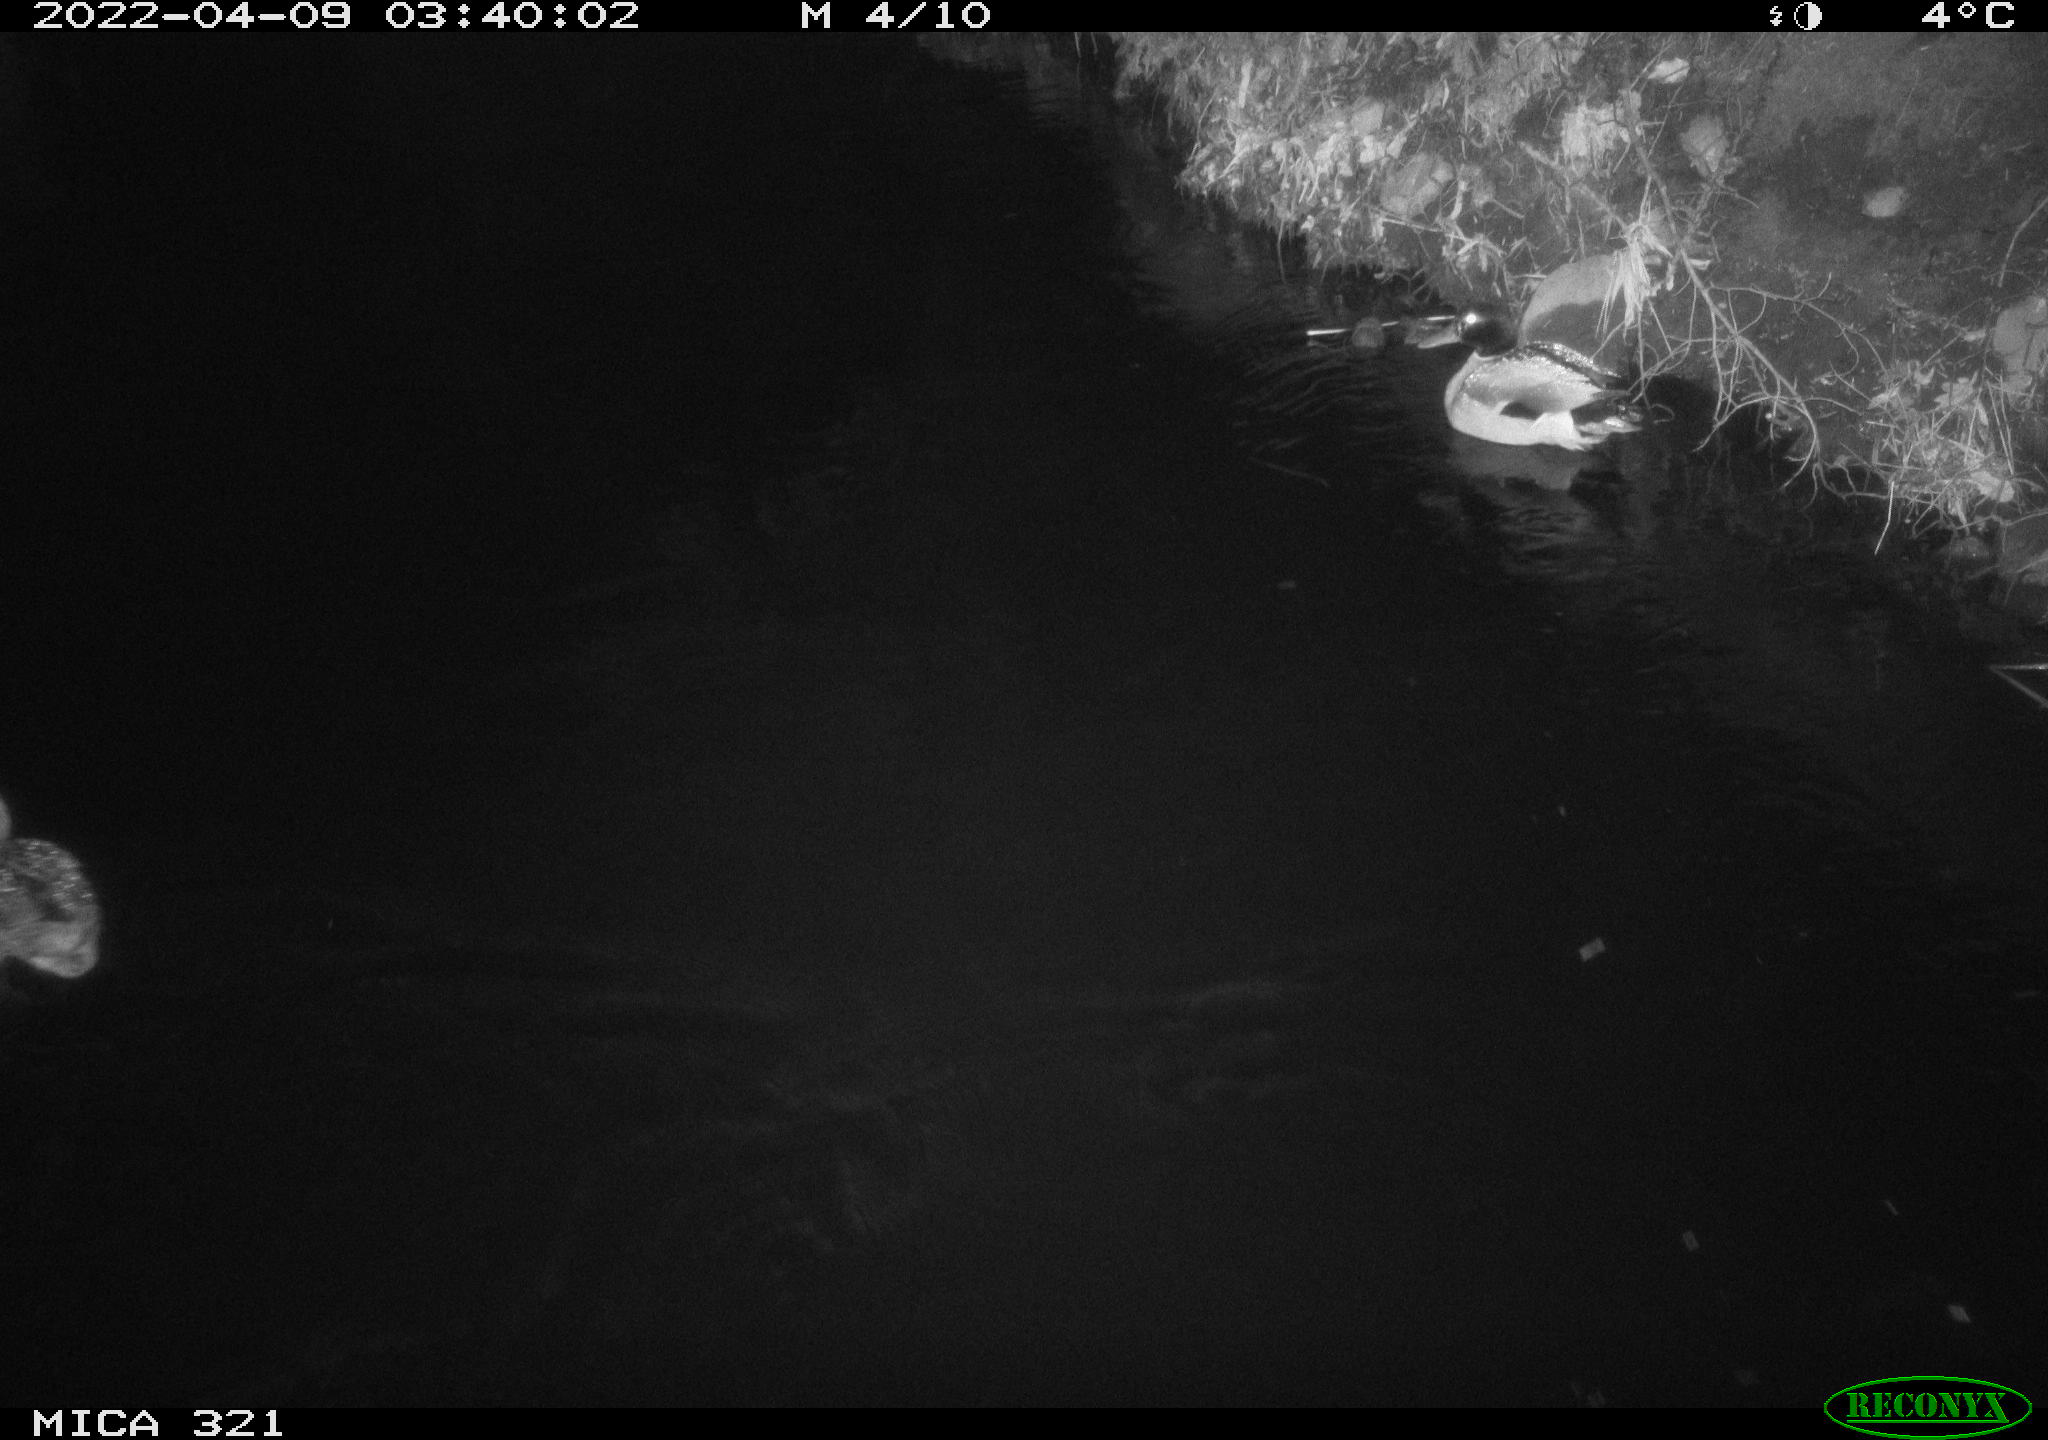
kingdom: Animalia
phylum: Chordata
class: Aves
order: Anseriformes
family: Anatidae
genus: Anas
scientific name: Anas platyrhynchos
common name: Mallard
